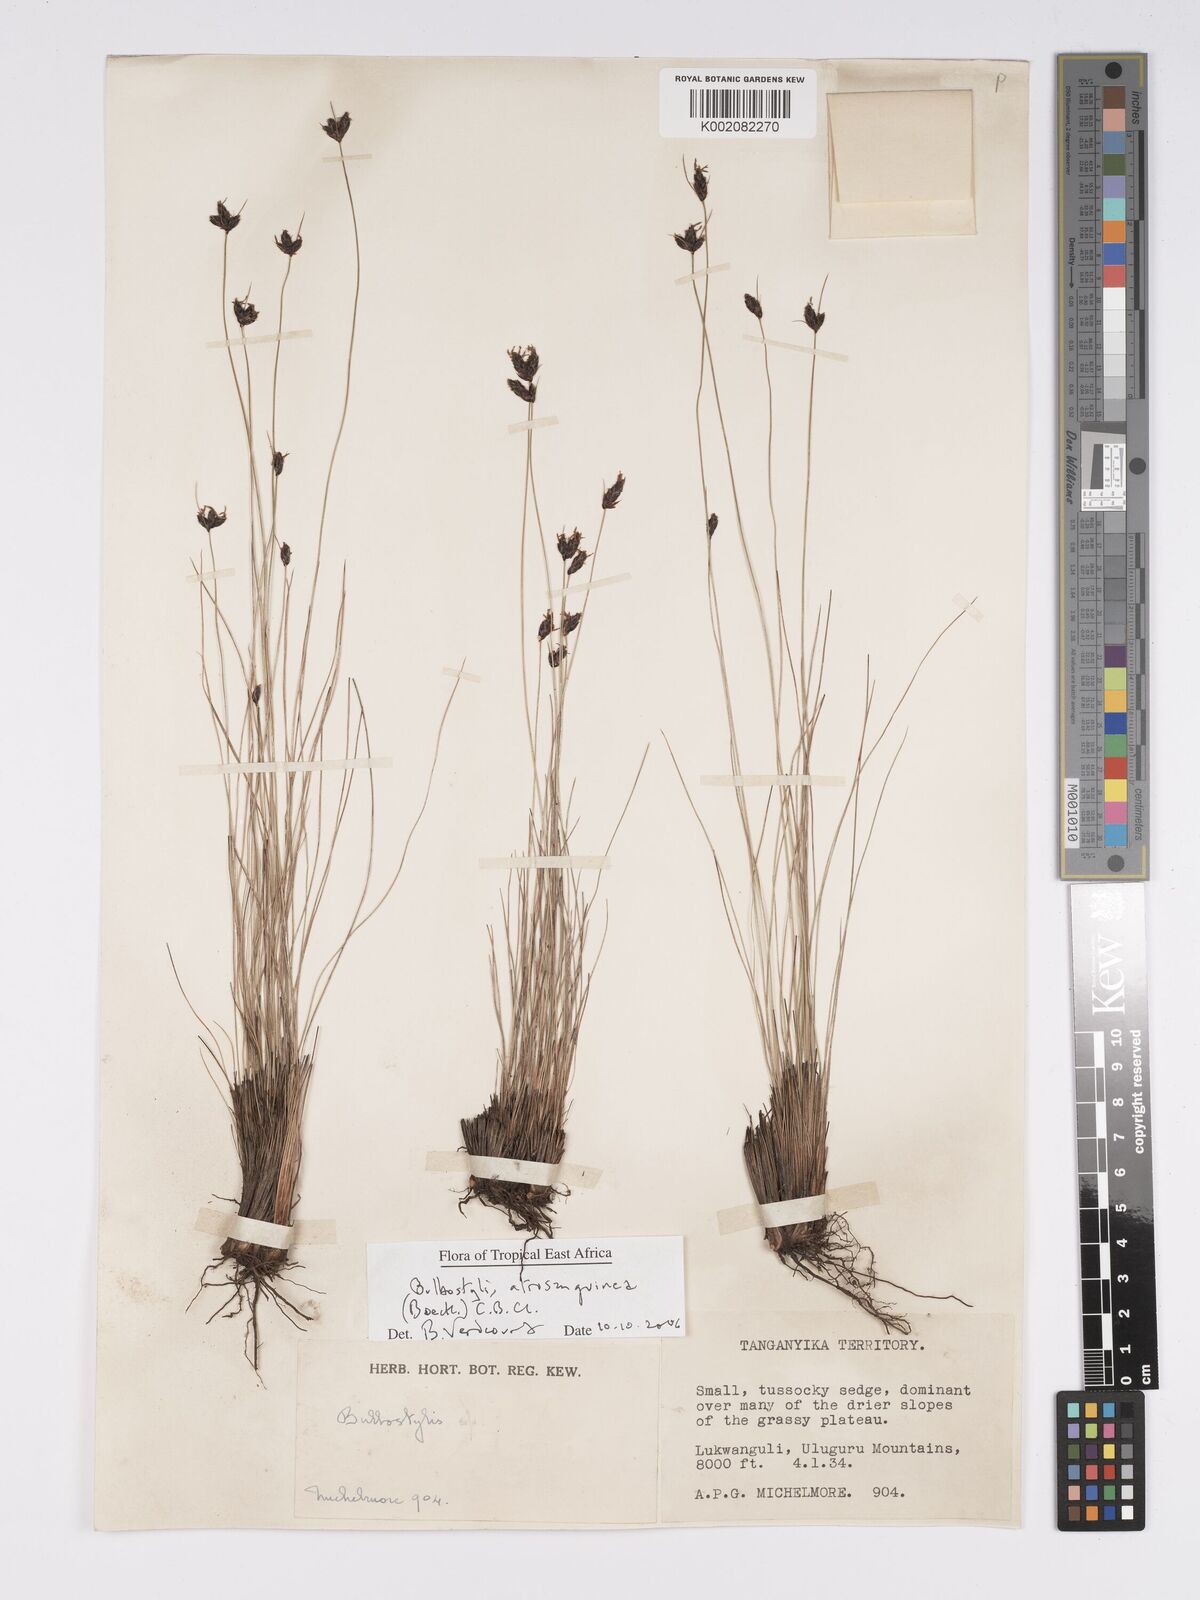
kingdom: Plantae
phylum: Tracheophyta
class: Liliopsida
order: Poales
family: Cyperaceae
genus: Bulbostylis
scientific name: Bulbostylis atrosanguinea
